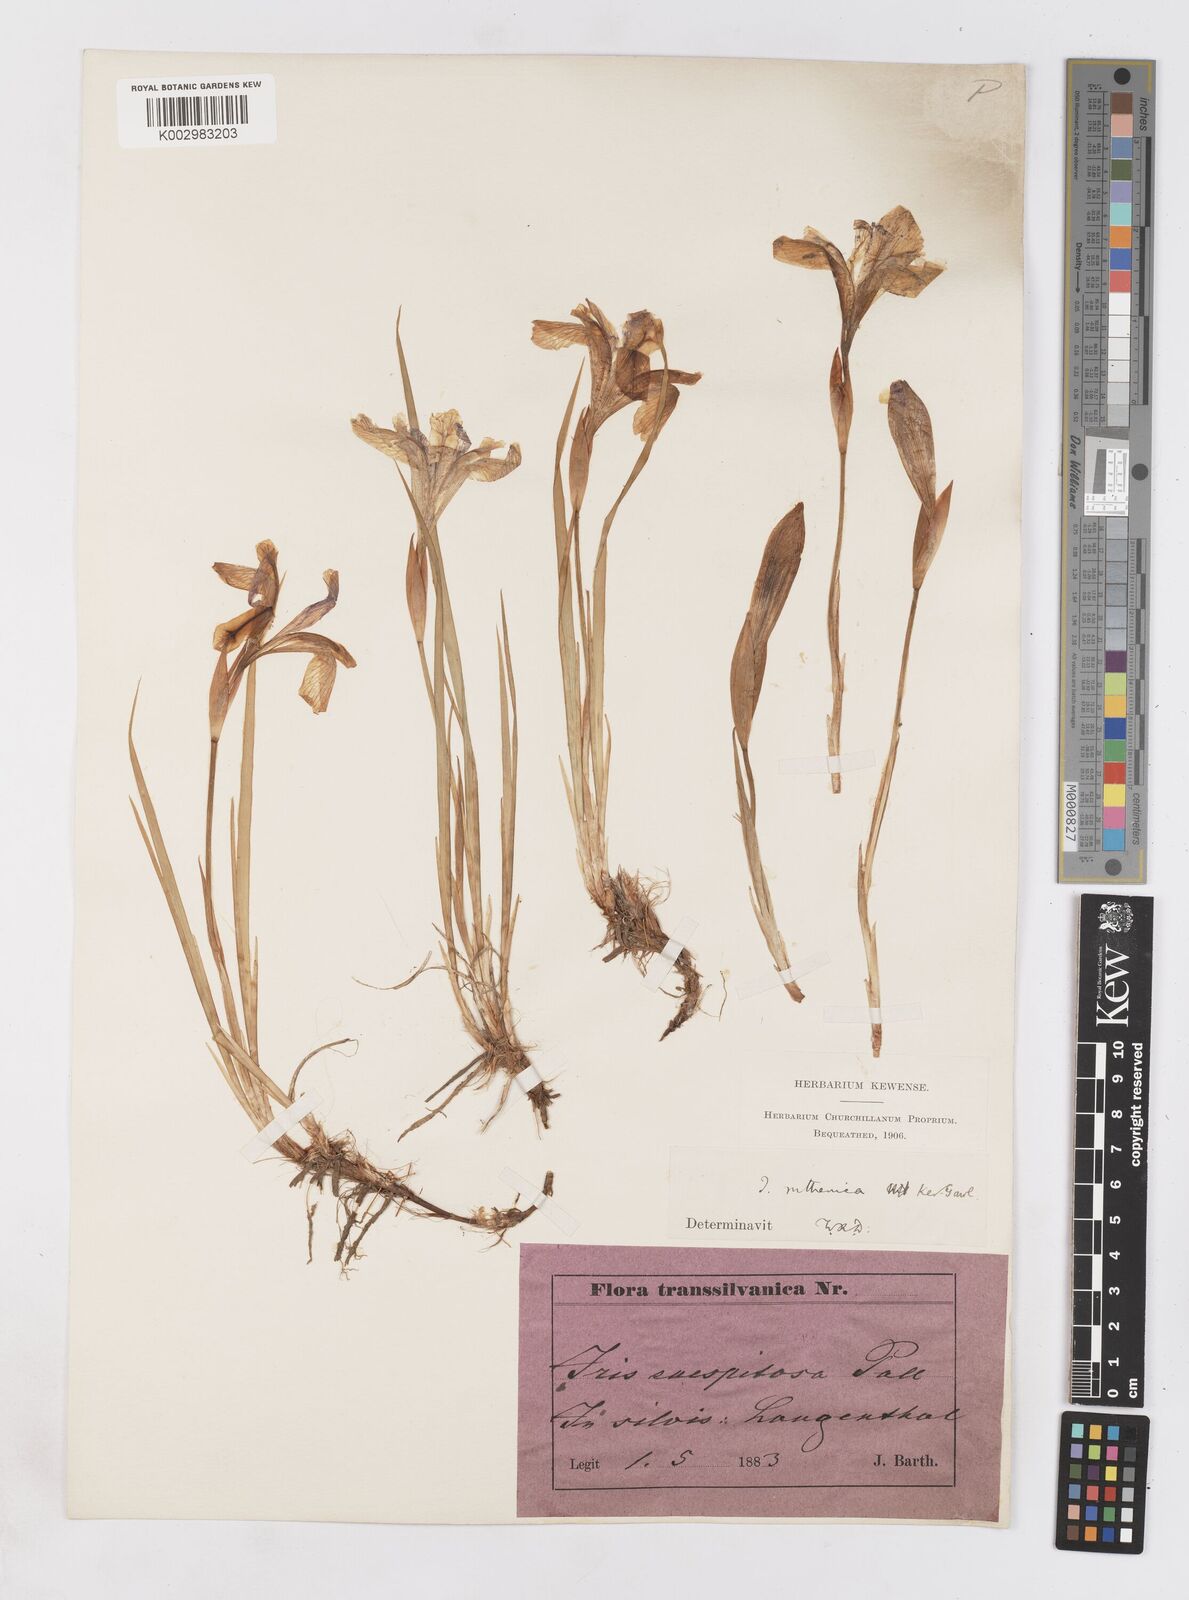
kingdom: Plantae
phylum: Tracheophyta
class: Liliopsida
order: Asparagales
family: Iridaceae
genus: Iris
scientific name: Iris ruthenica
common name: Purple-bract iris
